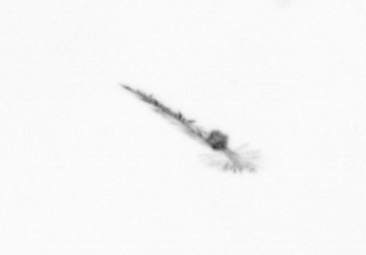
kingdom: Chromista
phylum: Ochrophyta
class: Bacillariophyceae
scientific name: Bacillariophyceae
